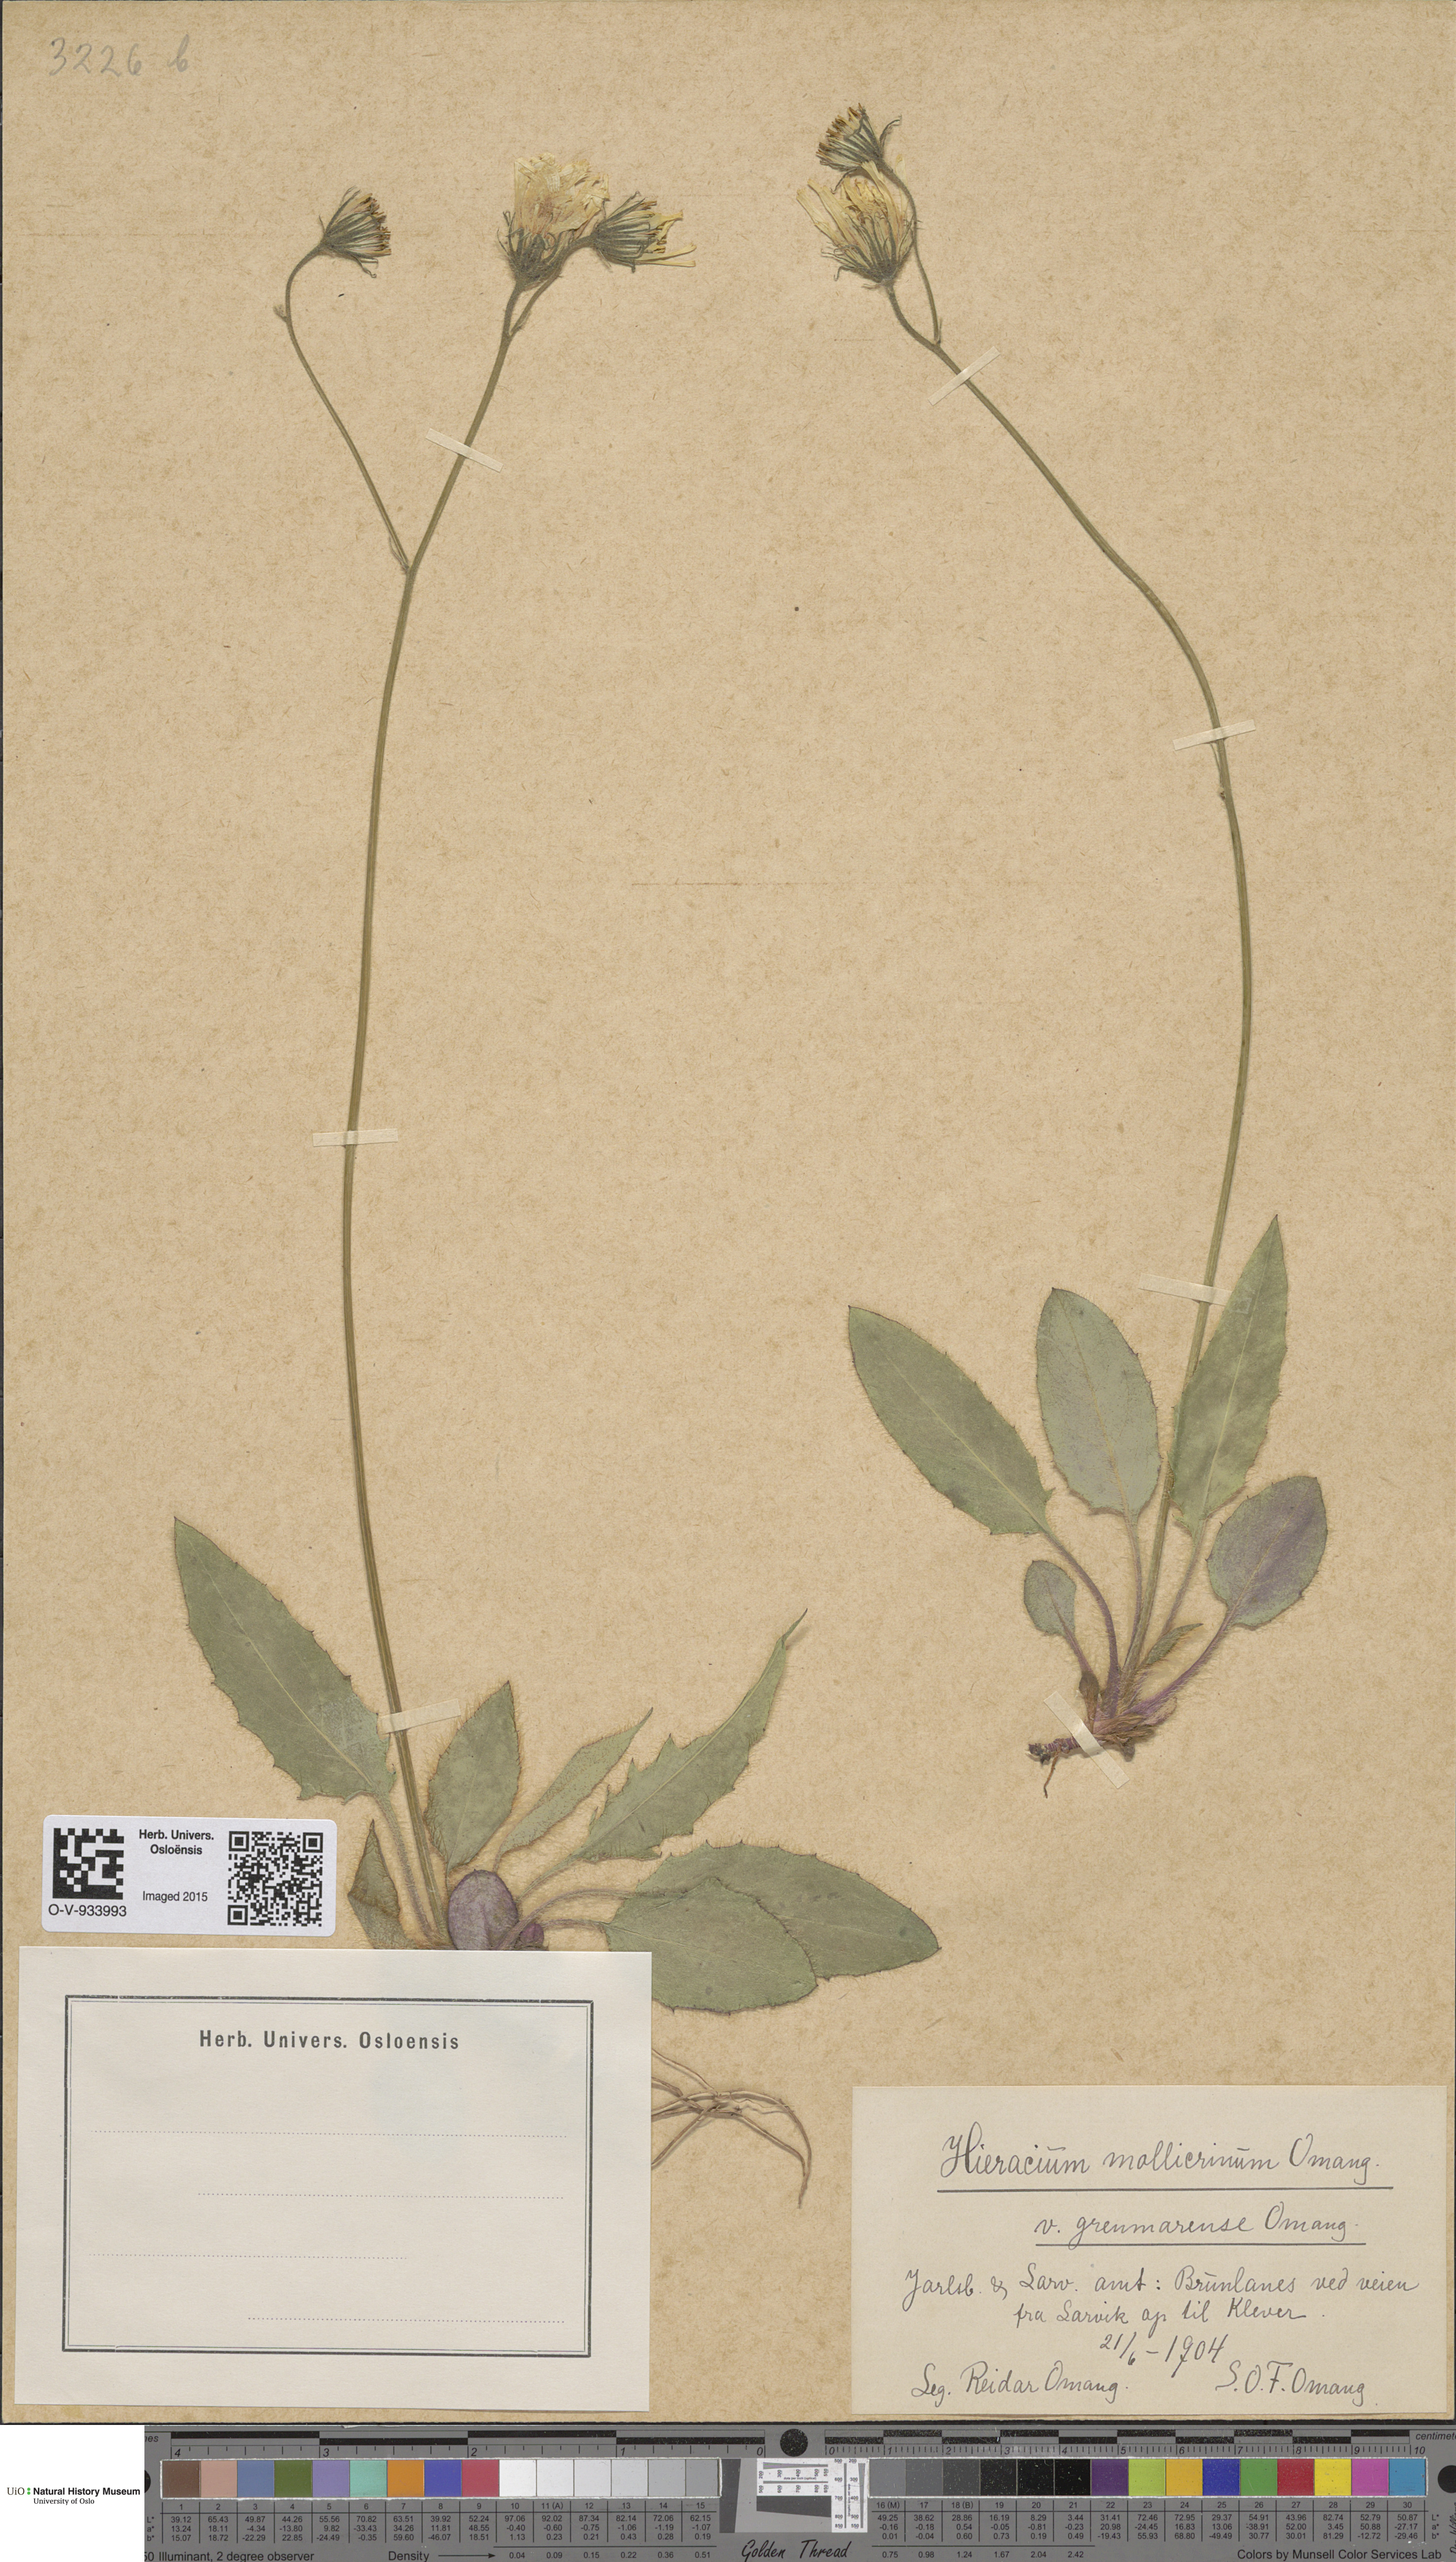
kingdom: Plantae
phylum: Tracheophyta
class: Magnoliopsida
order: Asterales
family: Asteraceae
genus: Hieracium
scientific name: Hieracium schmidtii
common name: Schmidt's hawkweed
